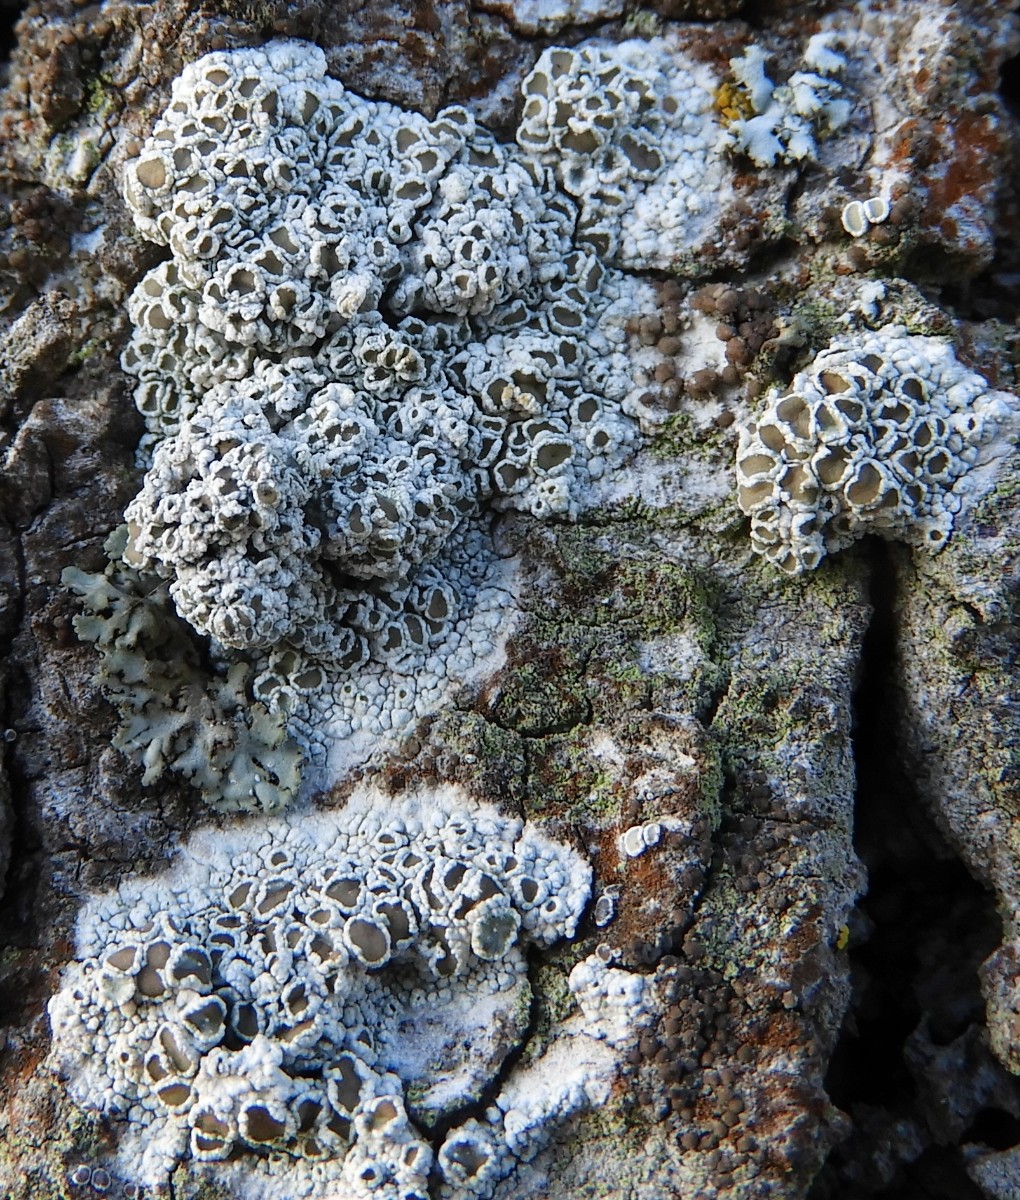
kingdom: Fungi
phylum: Ascomycota
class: Lecanoromycetes
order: Lecanorales
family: Lecanoraceae
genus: Lecanora
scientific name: Lecanora chlarotera
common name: brun kantskivelav
